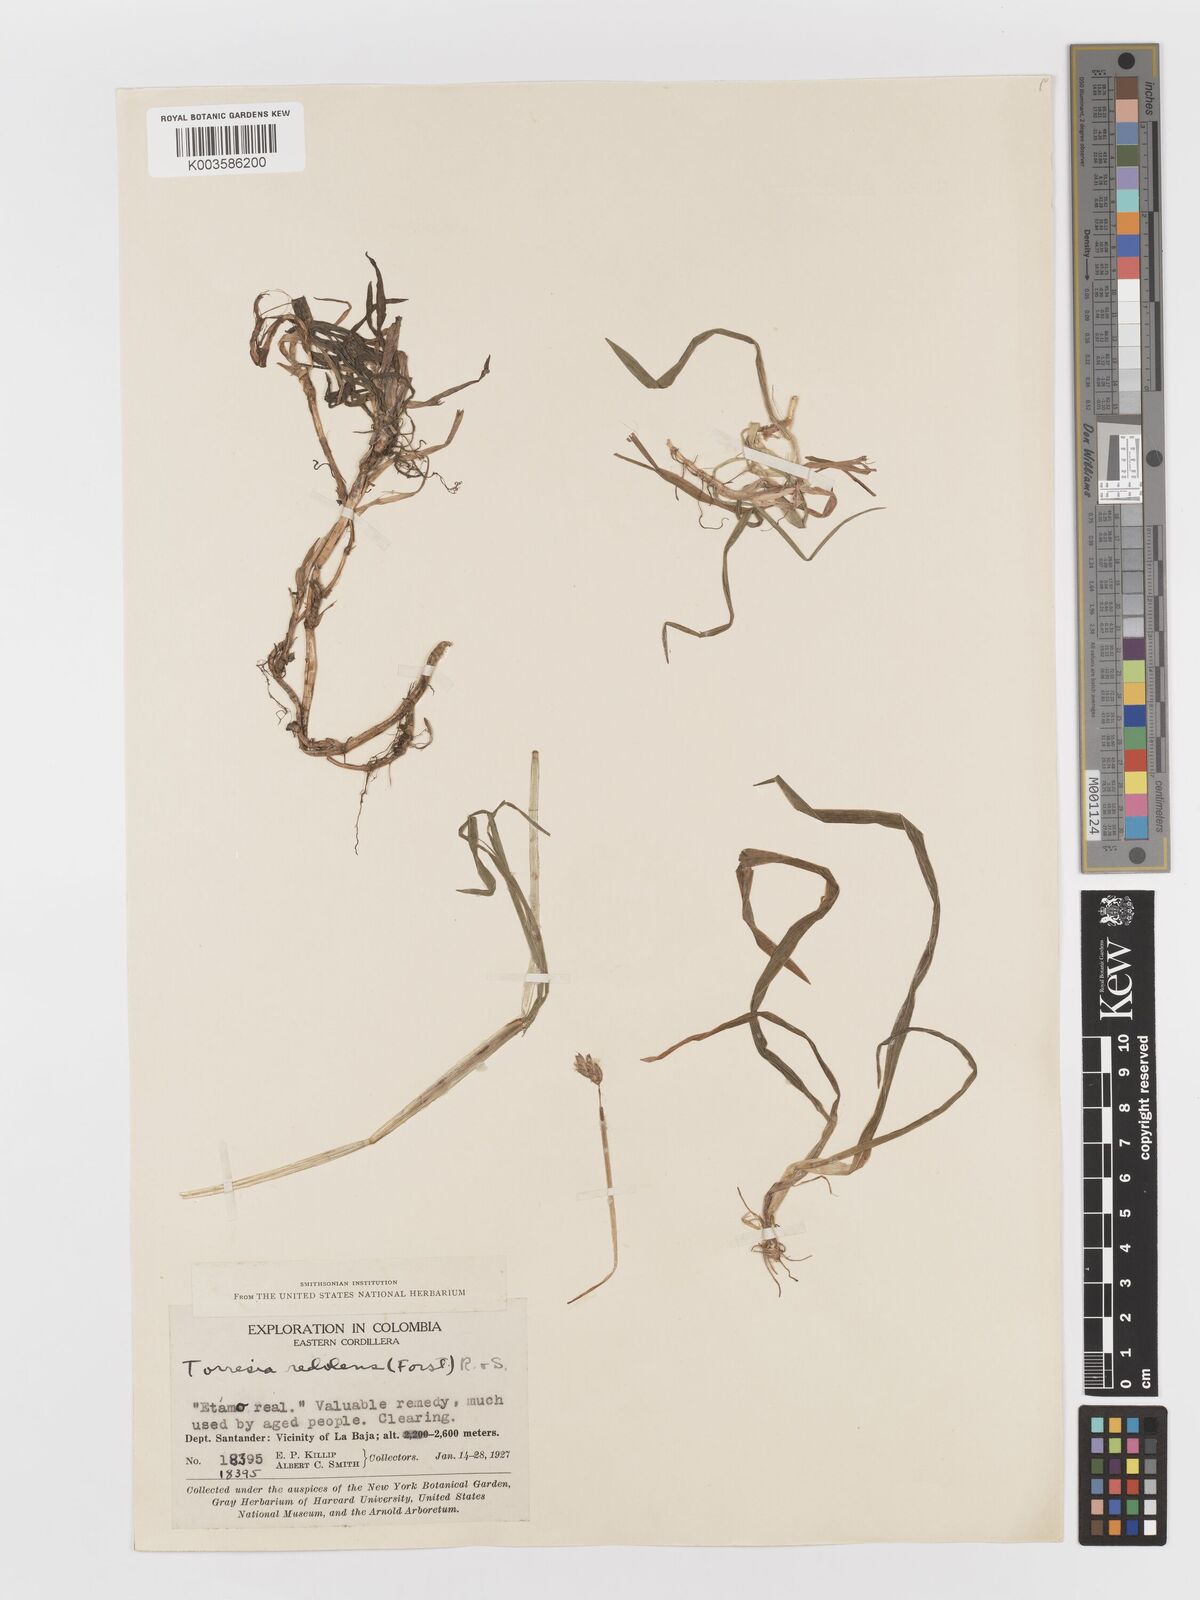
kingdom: Plantae
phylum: Tracheophyta
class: Liliopsida
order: Poales
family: Poaceae
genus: Anthoxanthum
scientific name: Anthoxanthum redolens
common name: Sweet holy grass
